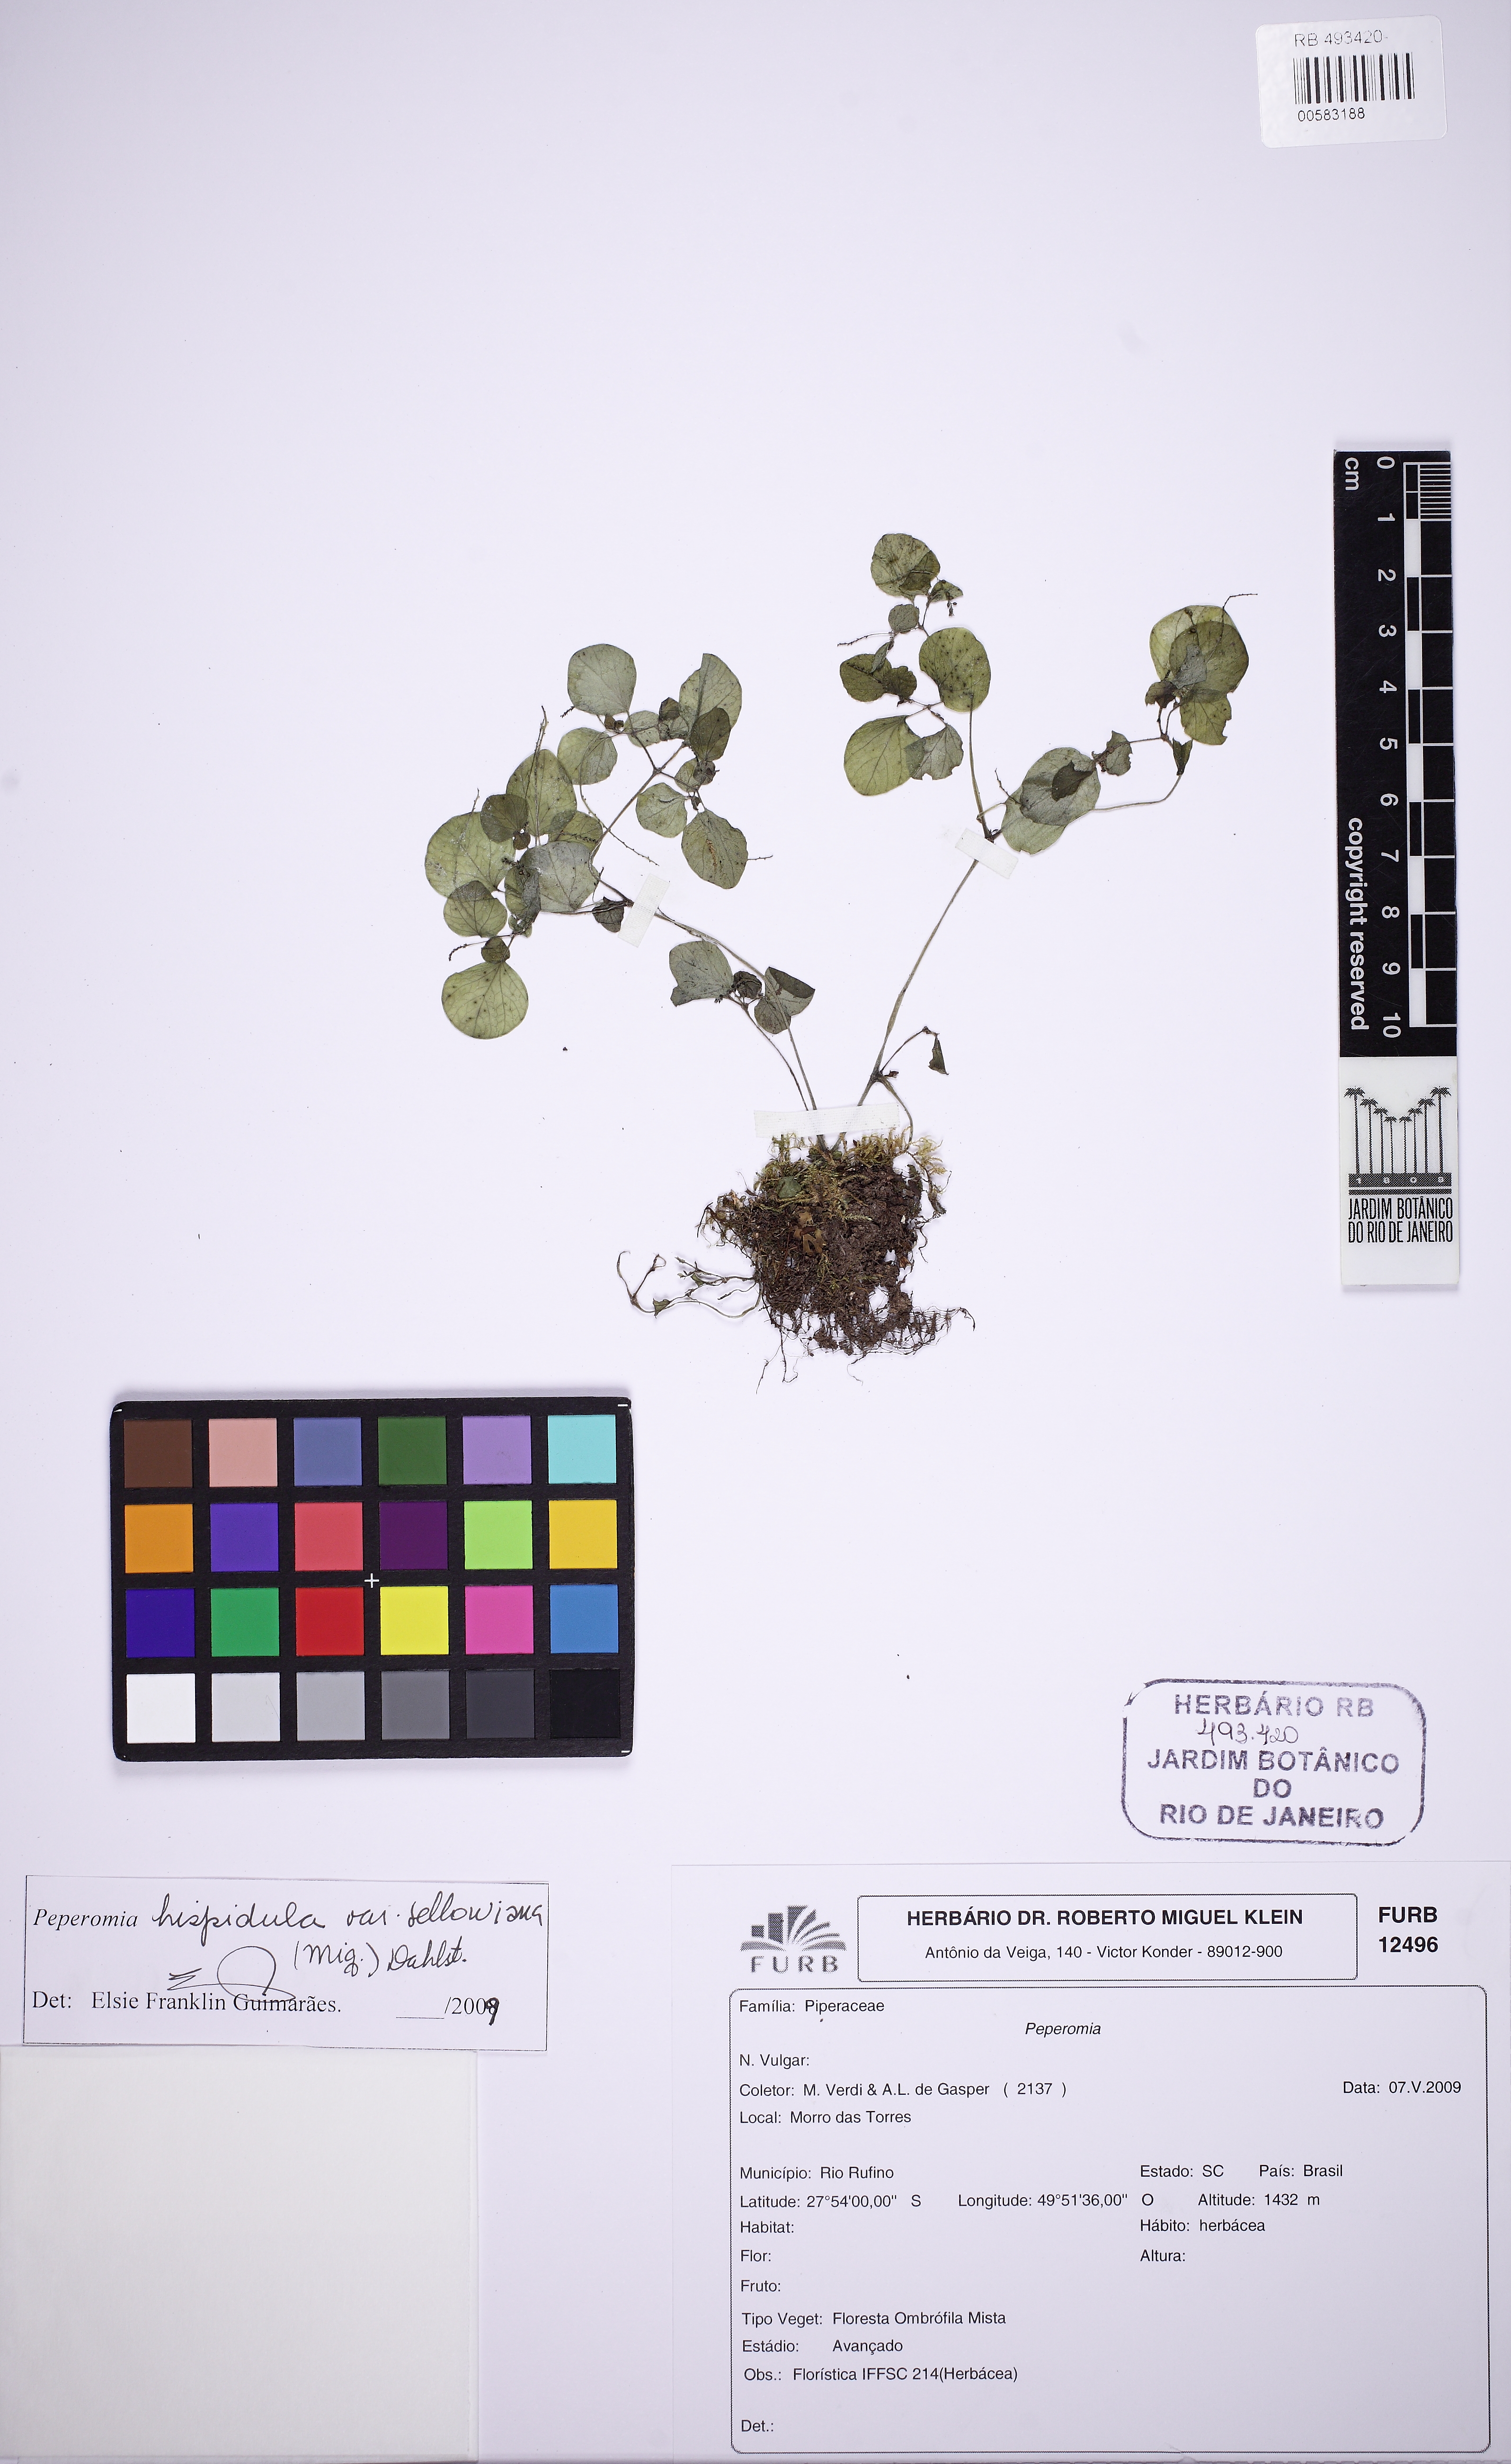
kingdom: Plantae
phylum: Tracheophyta
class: Magnoliopsida
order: Piperales
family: Piperaceae
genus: Peperomia
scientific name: Peperomia hispidula
